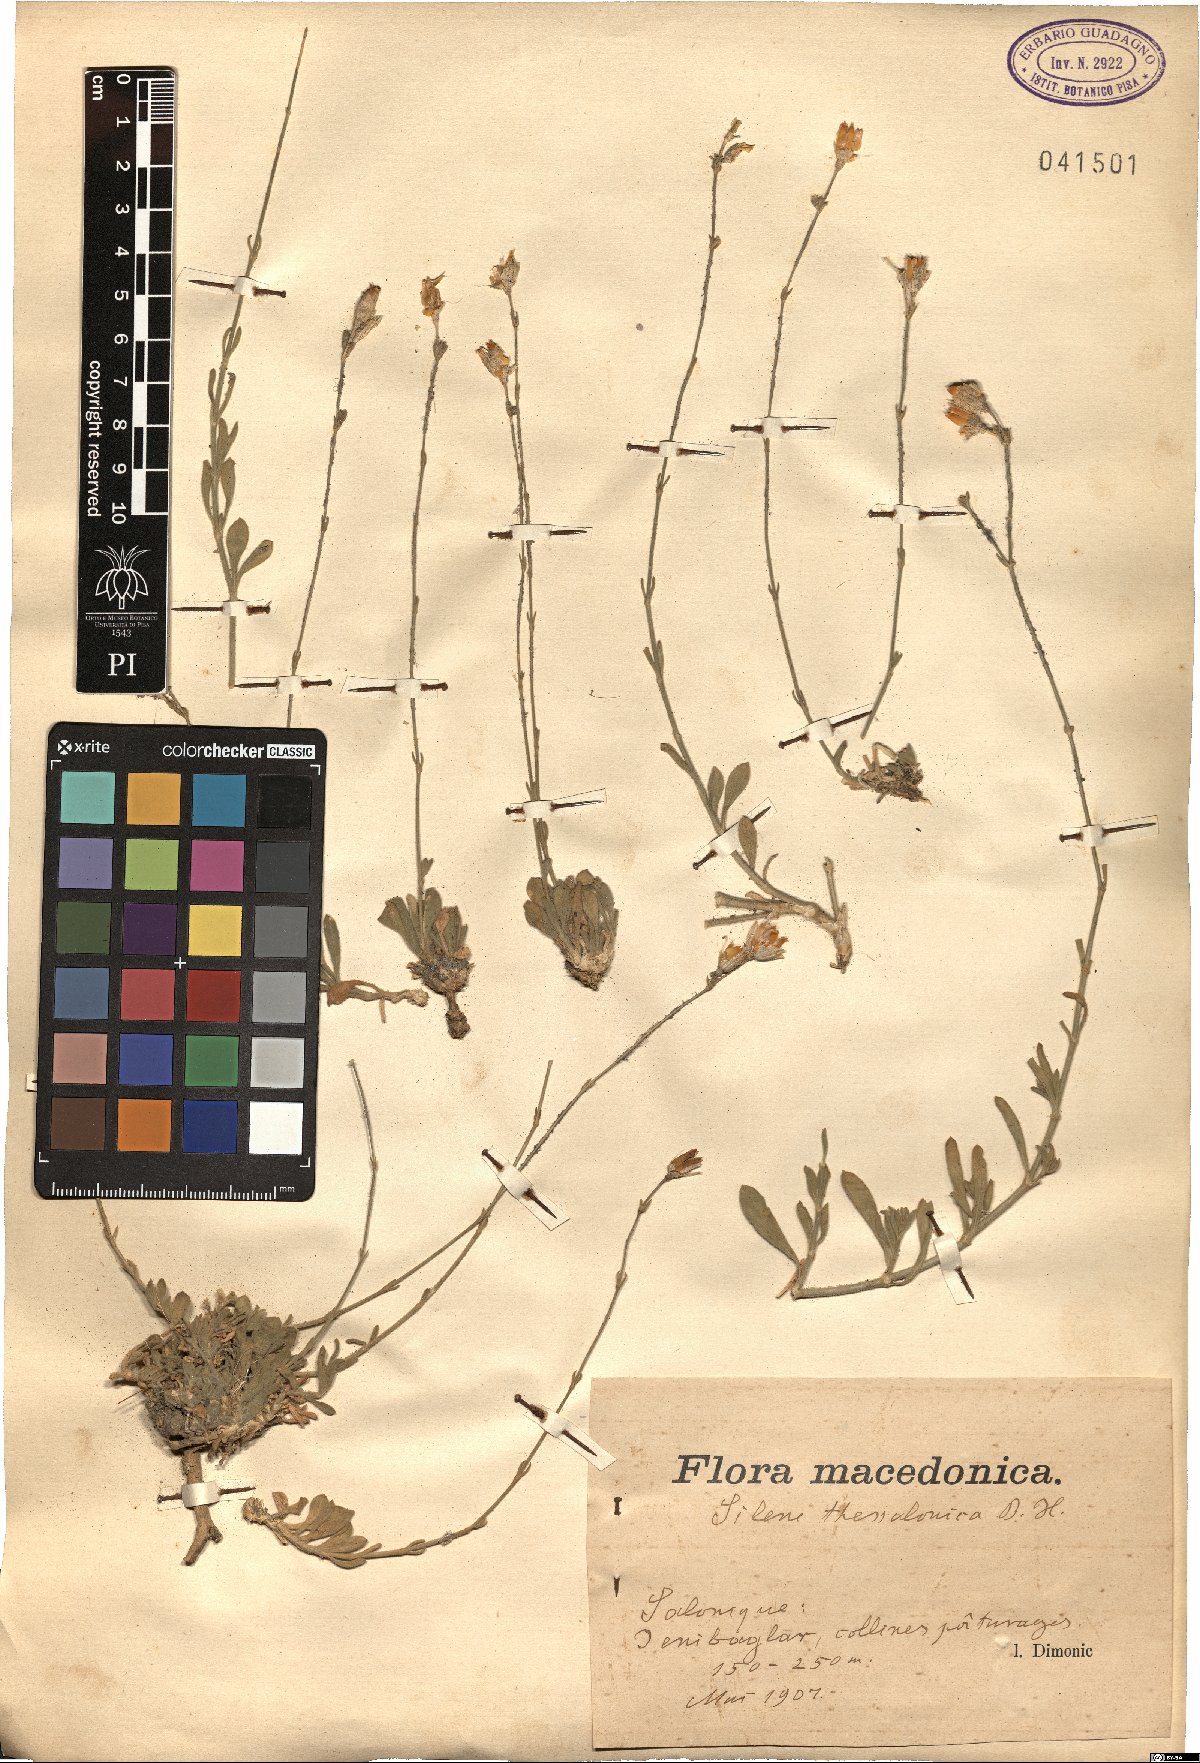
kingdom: Plantae
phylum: Tracheophyta
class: Magnoliopsida
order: Caryophyllales
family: Caryophyllaceae
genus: Silene
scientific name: Silene flavescens
